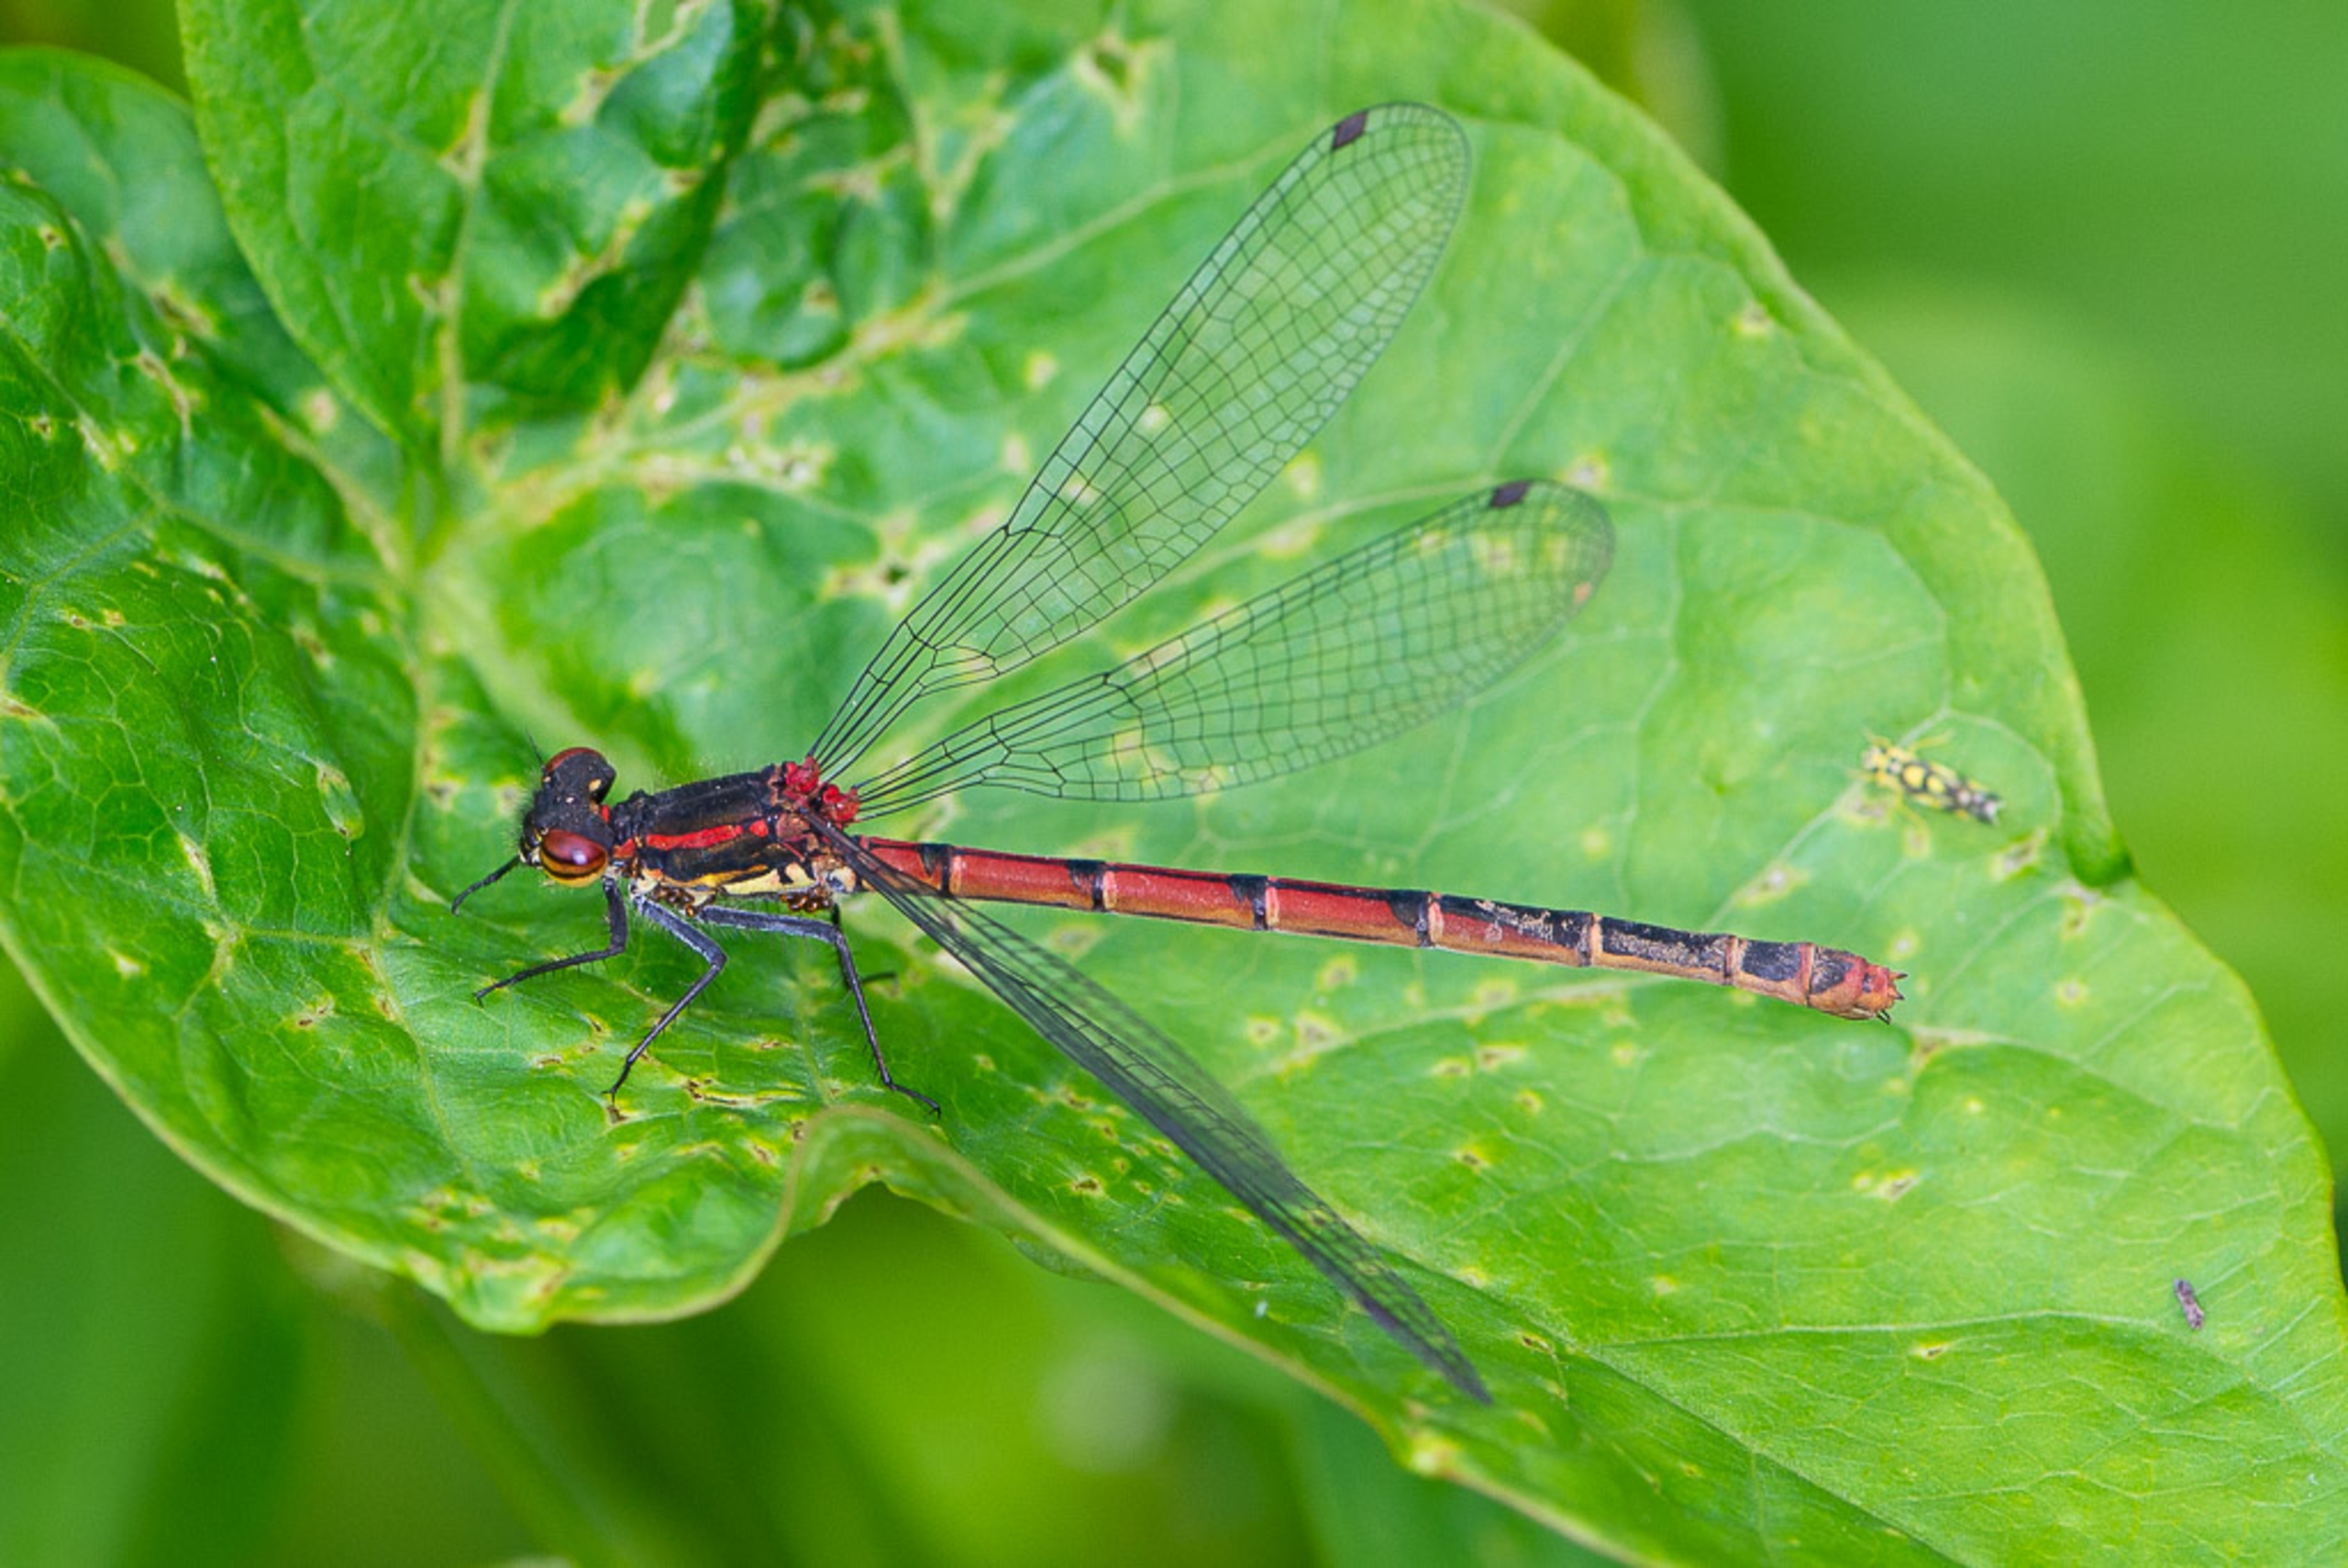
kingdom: Animalia
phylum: Arthropoda
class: Insecta
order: Odonata
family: Coenagrionidae
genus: Pyrrhosoma
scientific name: Pyrrhosoma nymphula
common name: Rød vandnymfe
